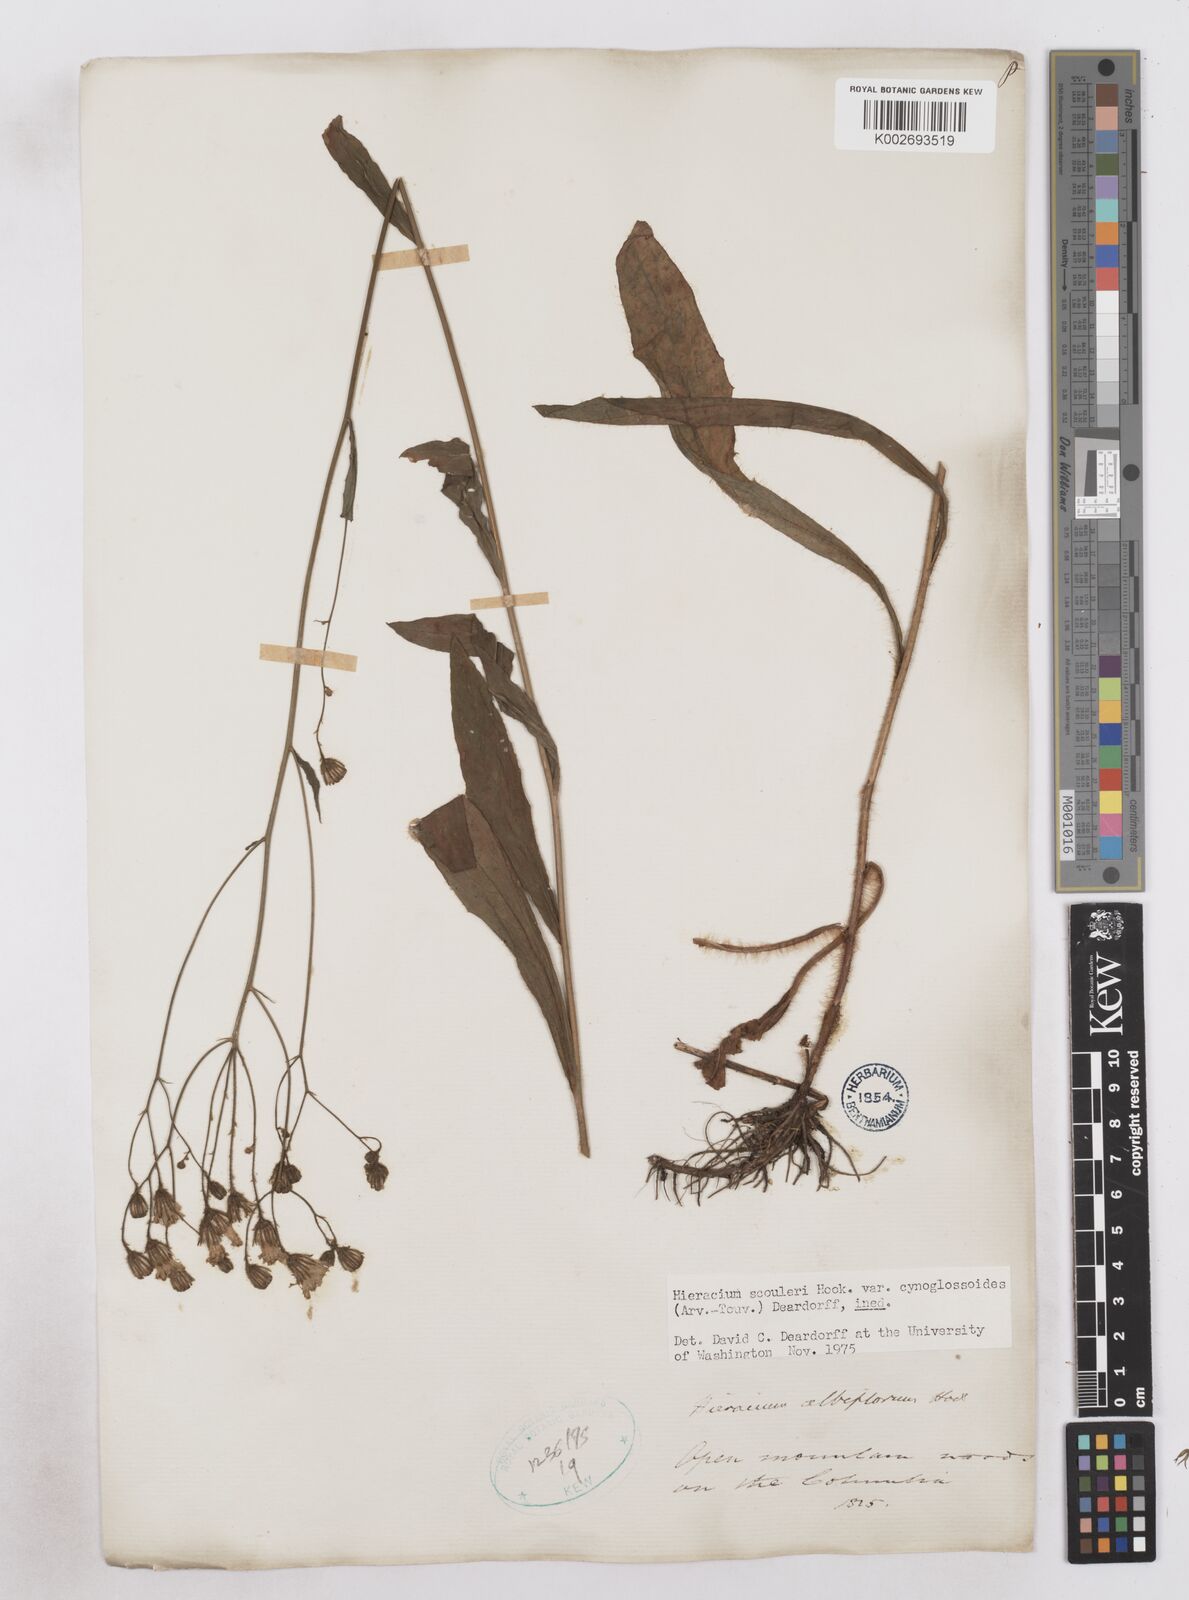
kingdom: Plantae
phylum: Tracheophyta
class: Magnoliopsida
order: Asterales
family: Asteraceae
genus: Hieracium
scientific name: Hieracium scouleri
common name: Hound's-tongue hawkweed
